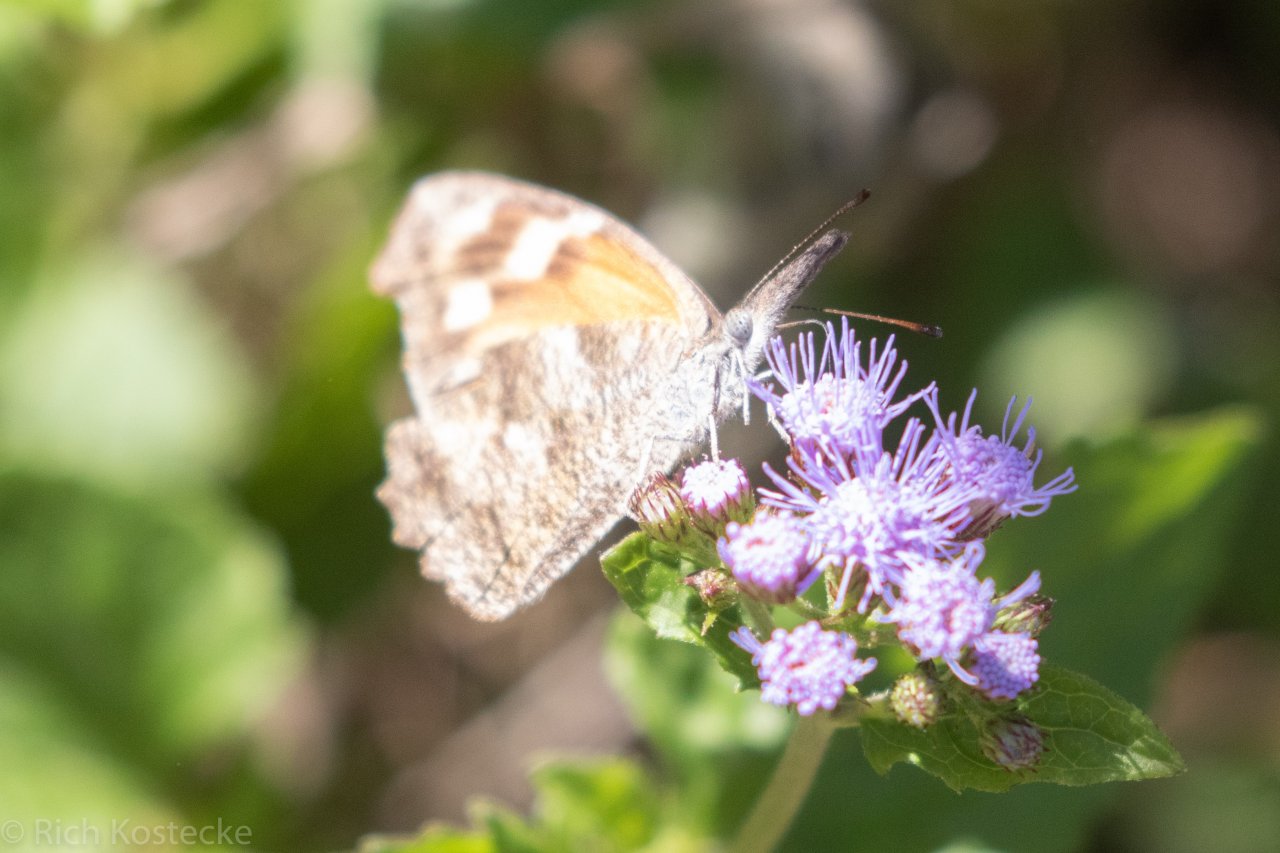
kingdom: Animalia
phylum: Arthropoda
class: Insecta
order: Lepidoptera
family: Nymphalidae
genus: Libytheana
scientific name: Libytheana carinenta
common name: American Snout
